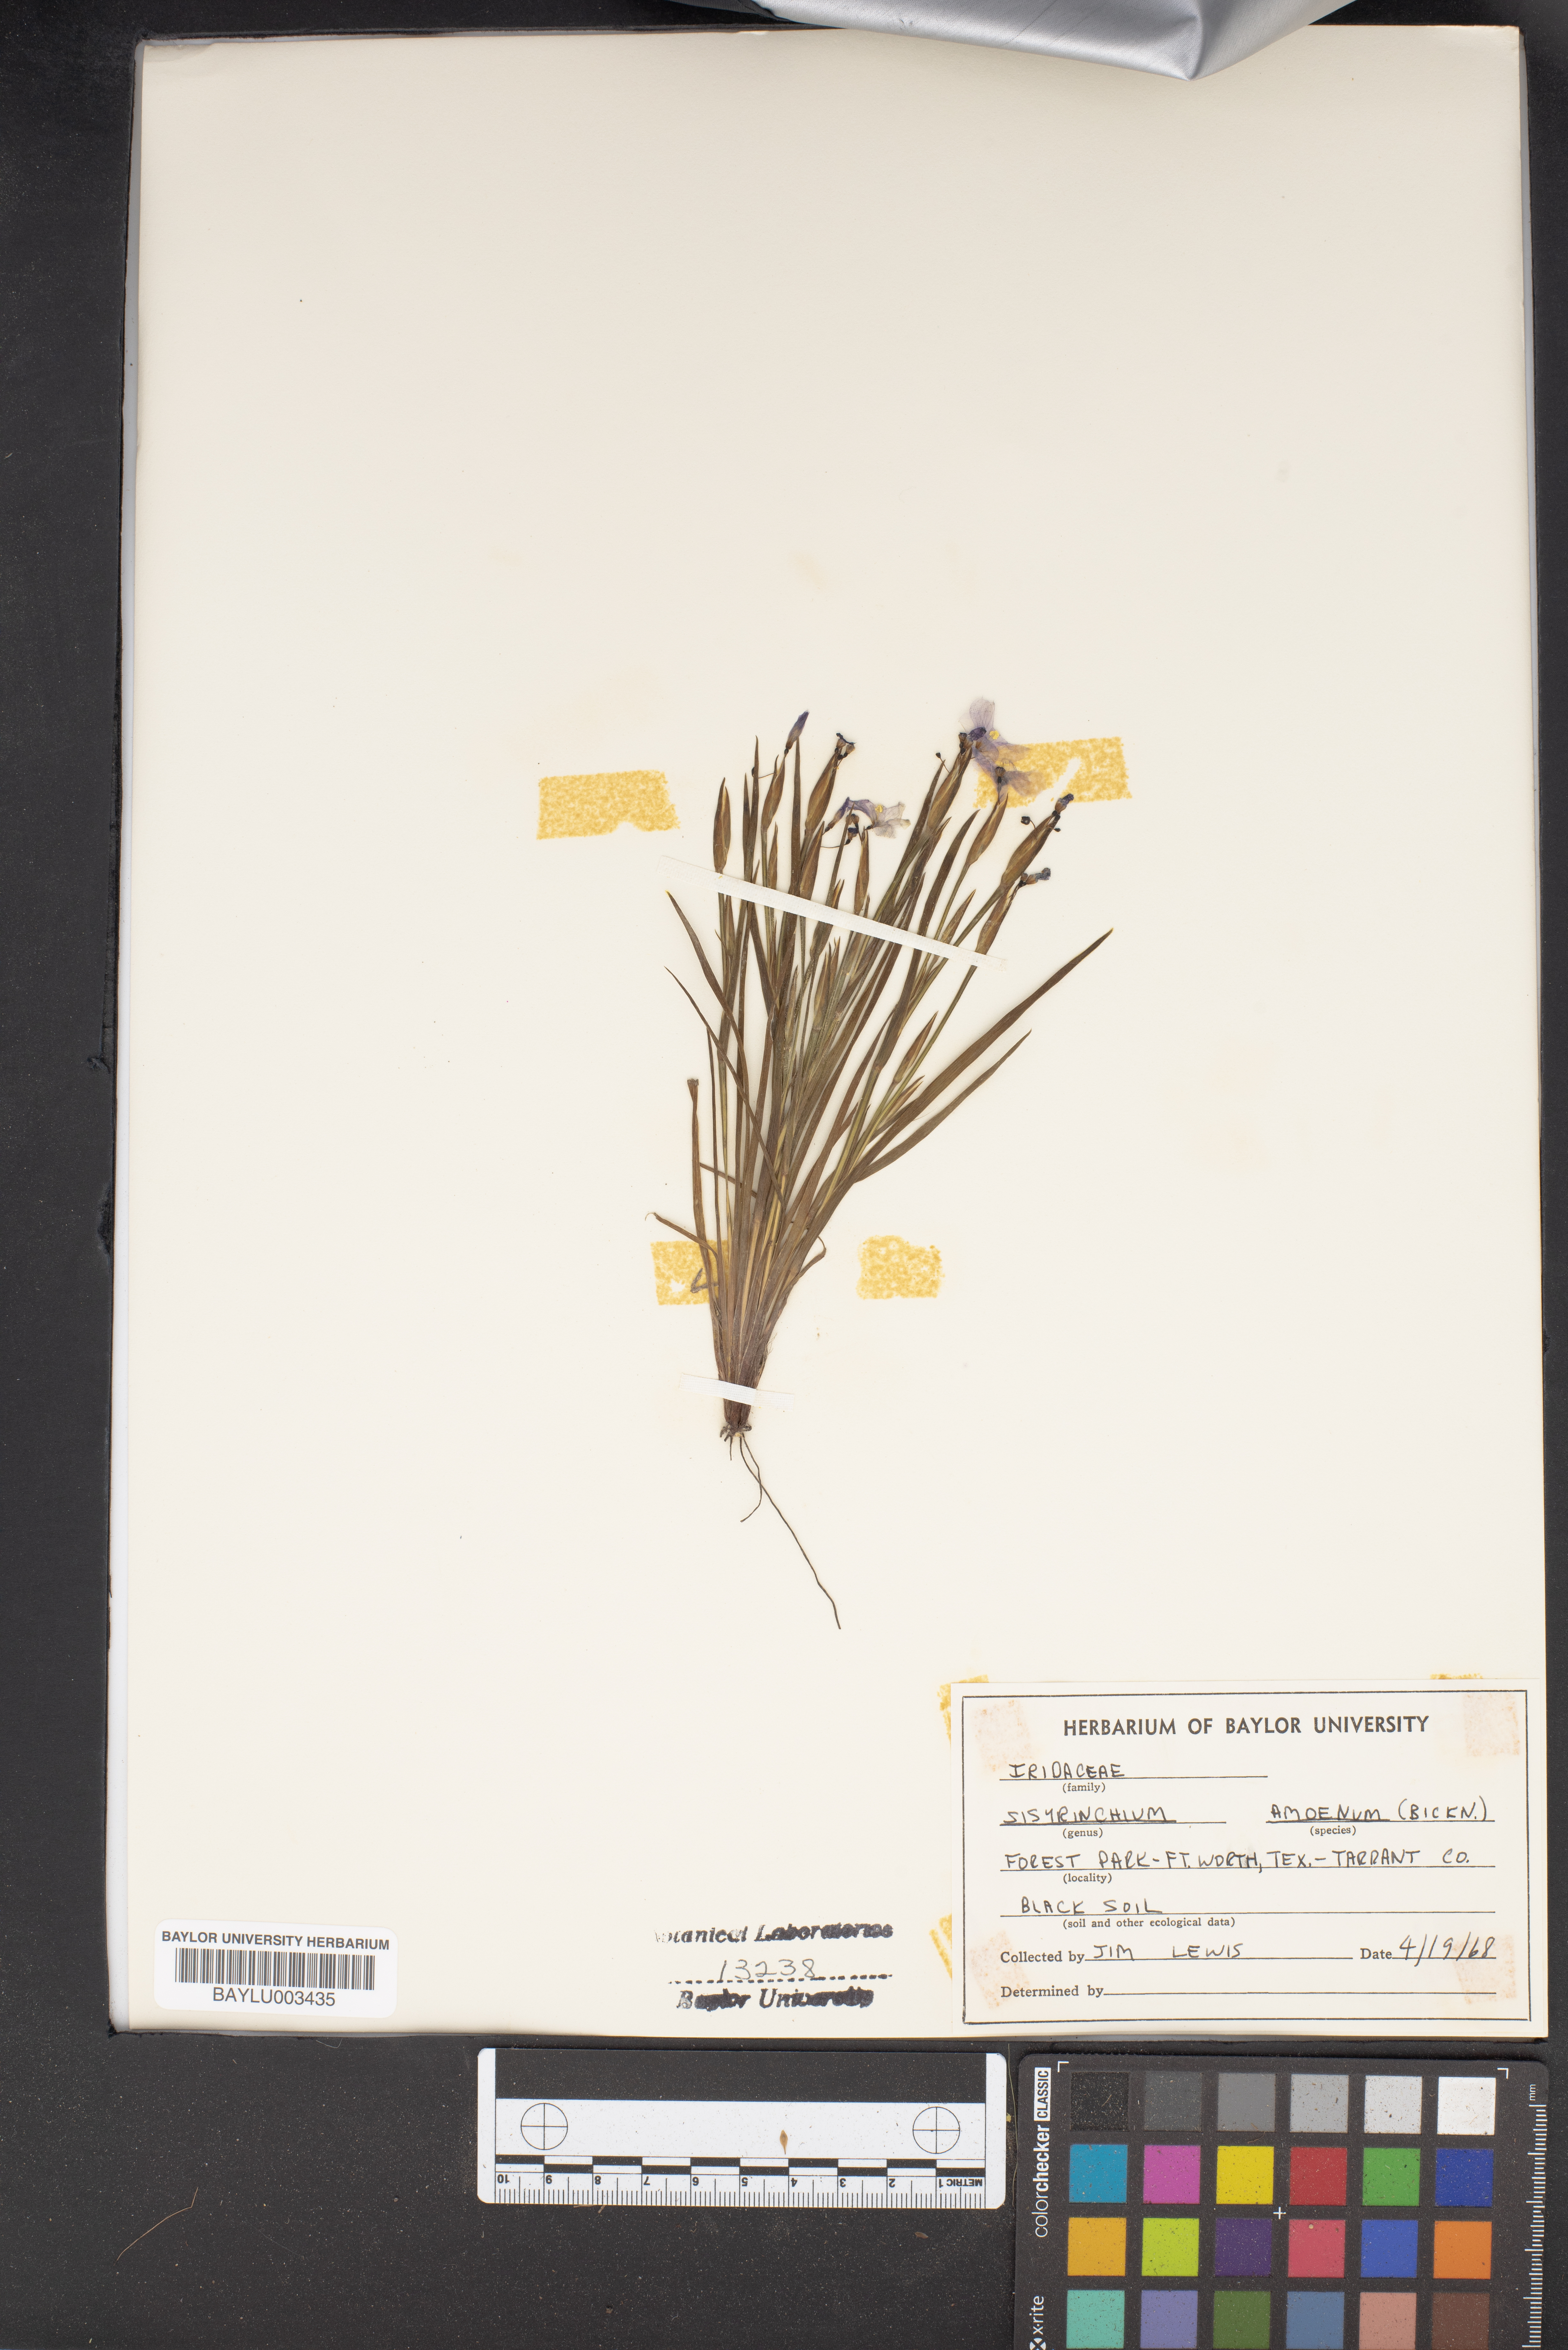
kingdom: Plantae
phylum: Tracheophyta
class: Liliopsida
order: Asparagales
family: Iridaceae
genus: Sisyrinchium
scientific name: Sisyrinchium ensigerum
